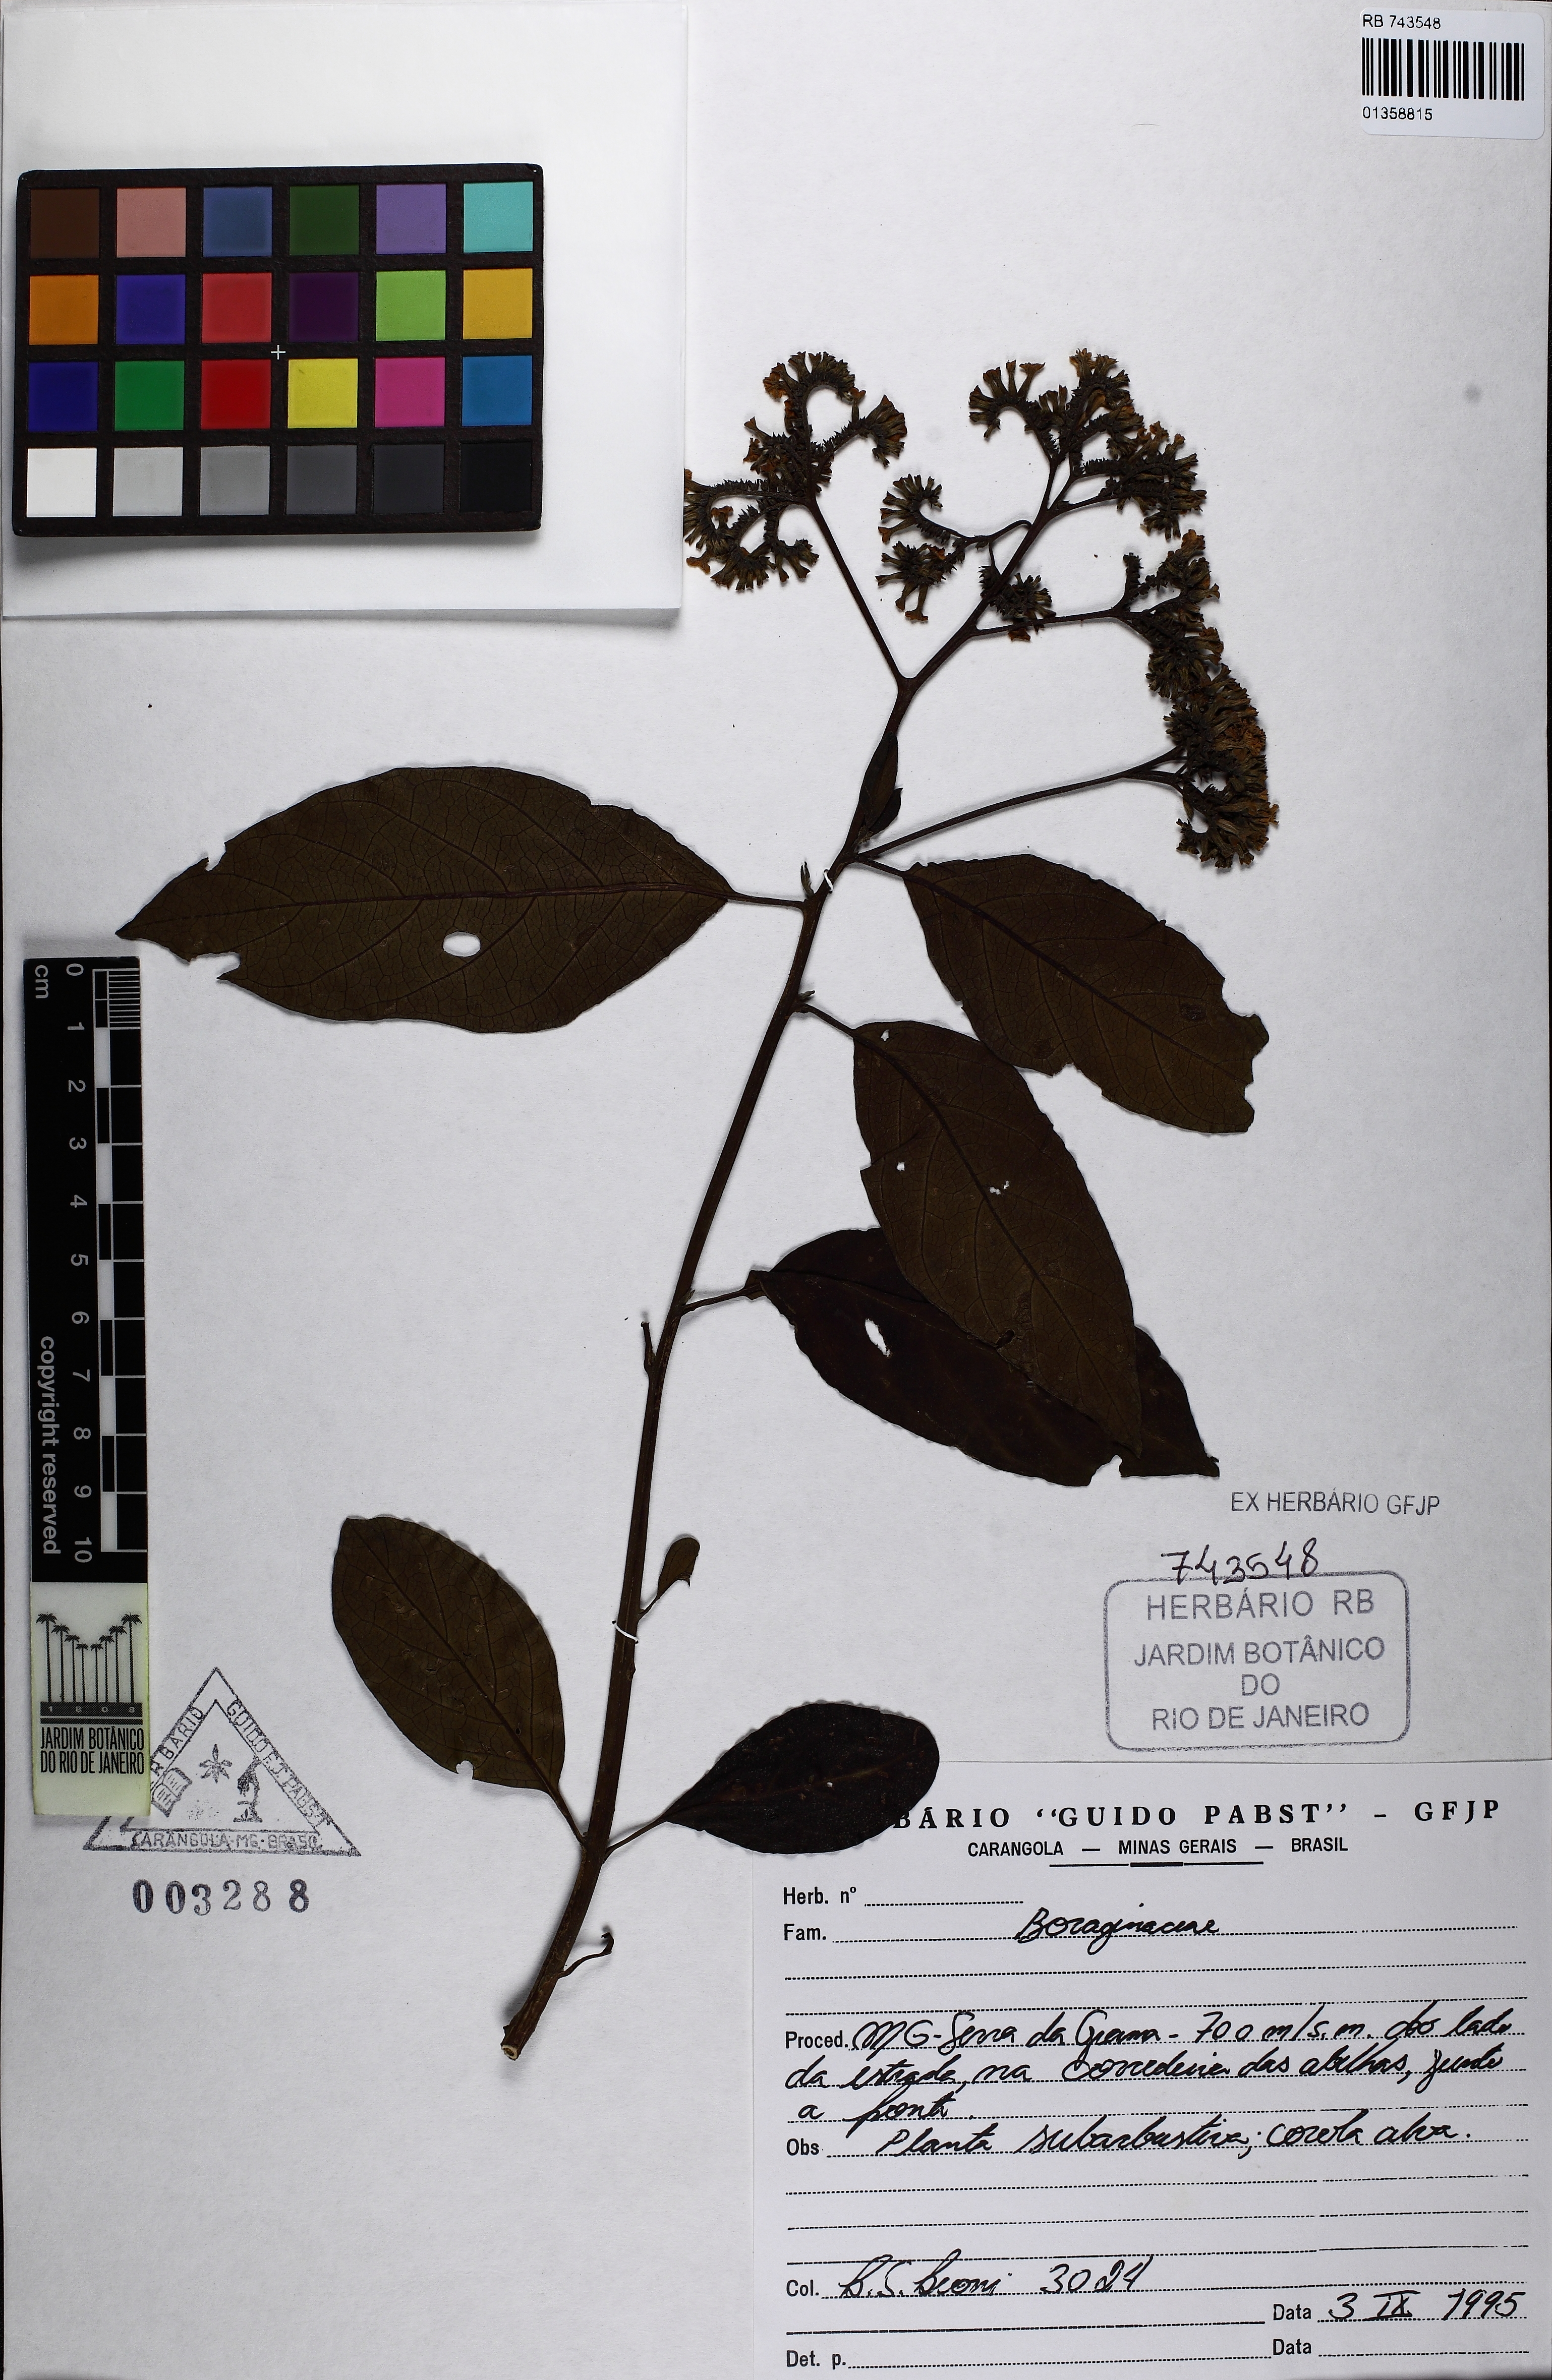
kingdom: Plantae
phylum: Tracheophyta
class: Magnoliopsida
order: Boraginales
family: Heliotropiaceae
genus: Heliotropium
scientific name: Heliotropium verdcourtii
